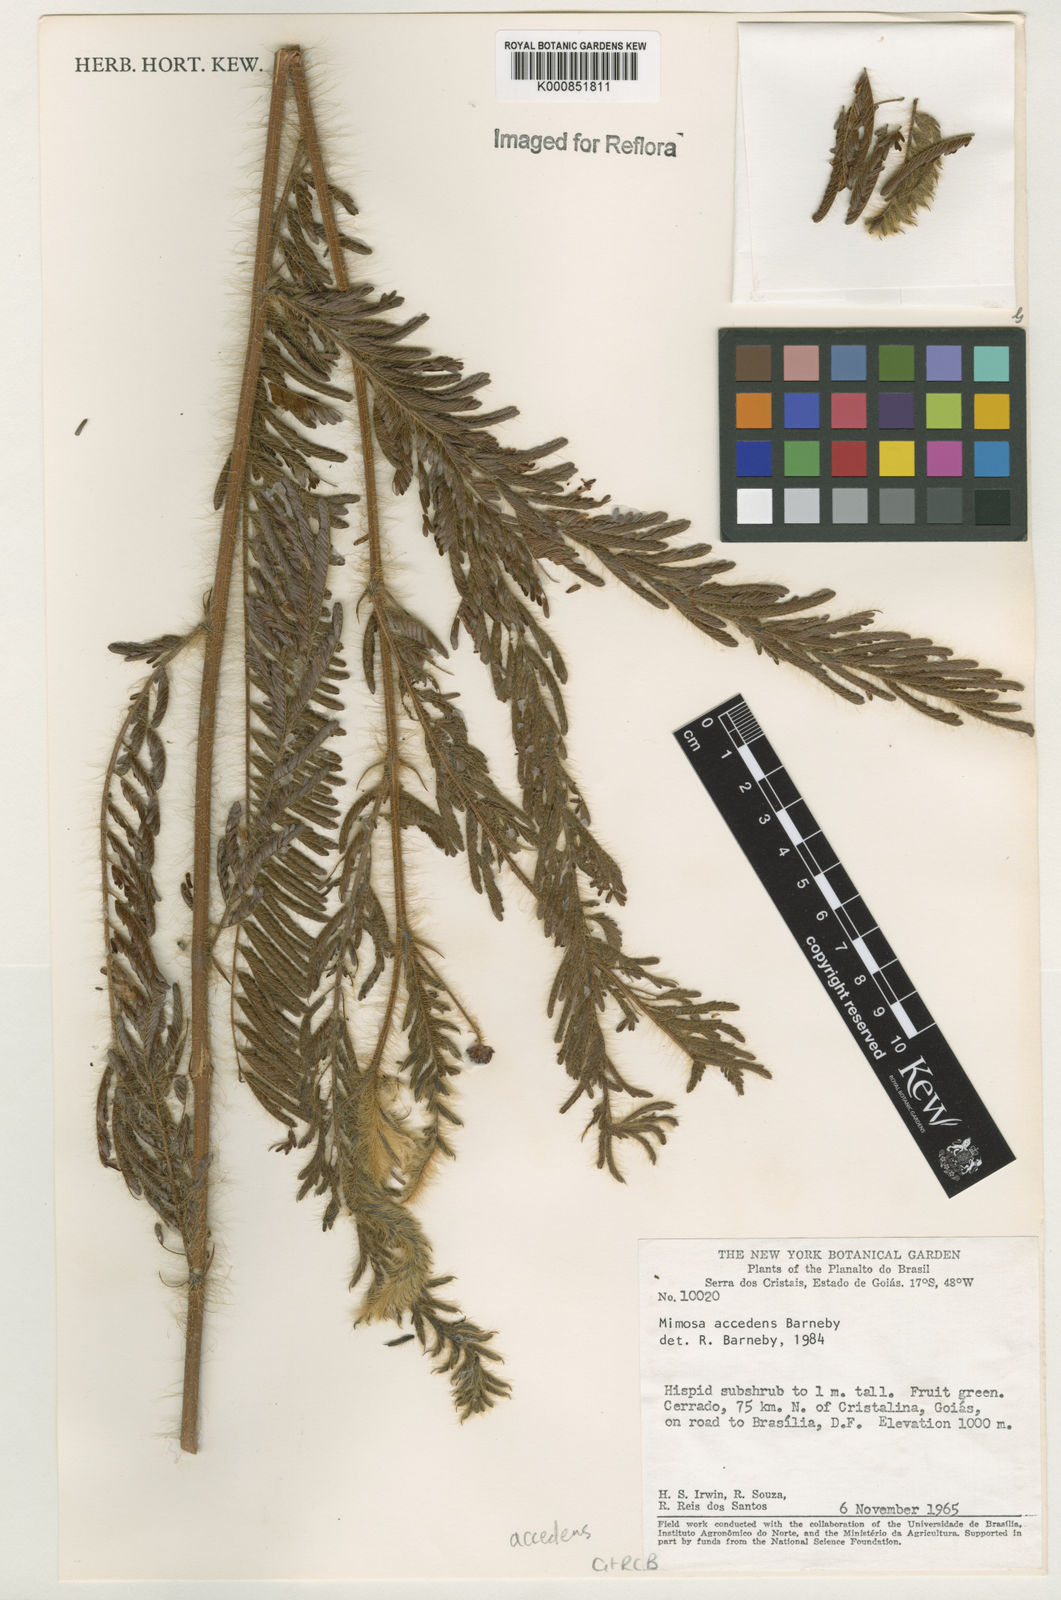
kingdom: Plantae
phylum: Tracheophyta
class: Magnoliopsida
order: Fabales
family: Fabaceae
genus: Mimosa
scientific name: Mimosa accedens
